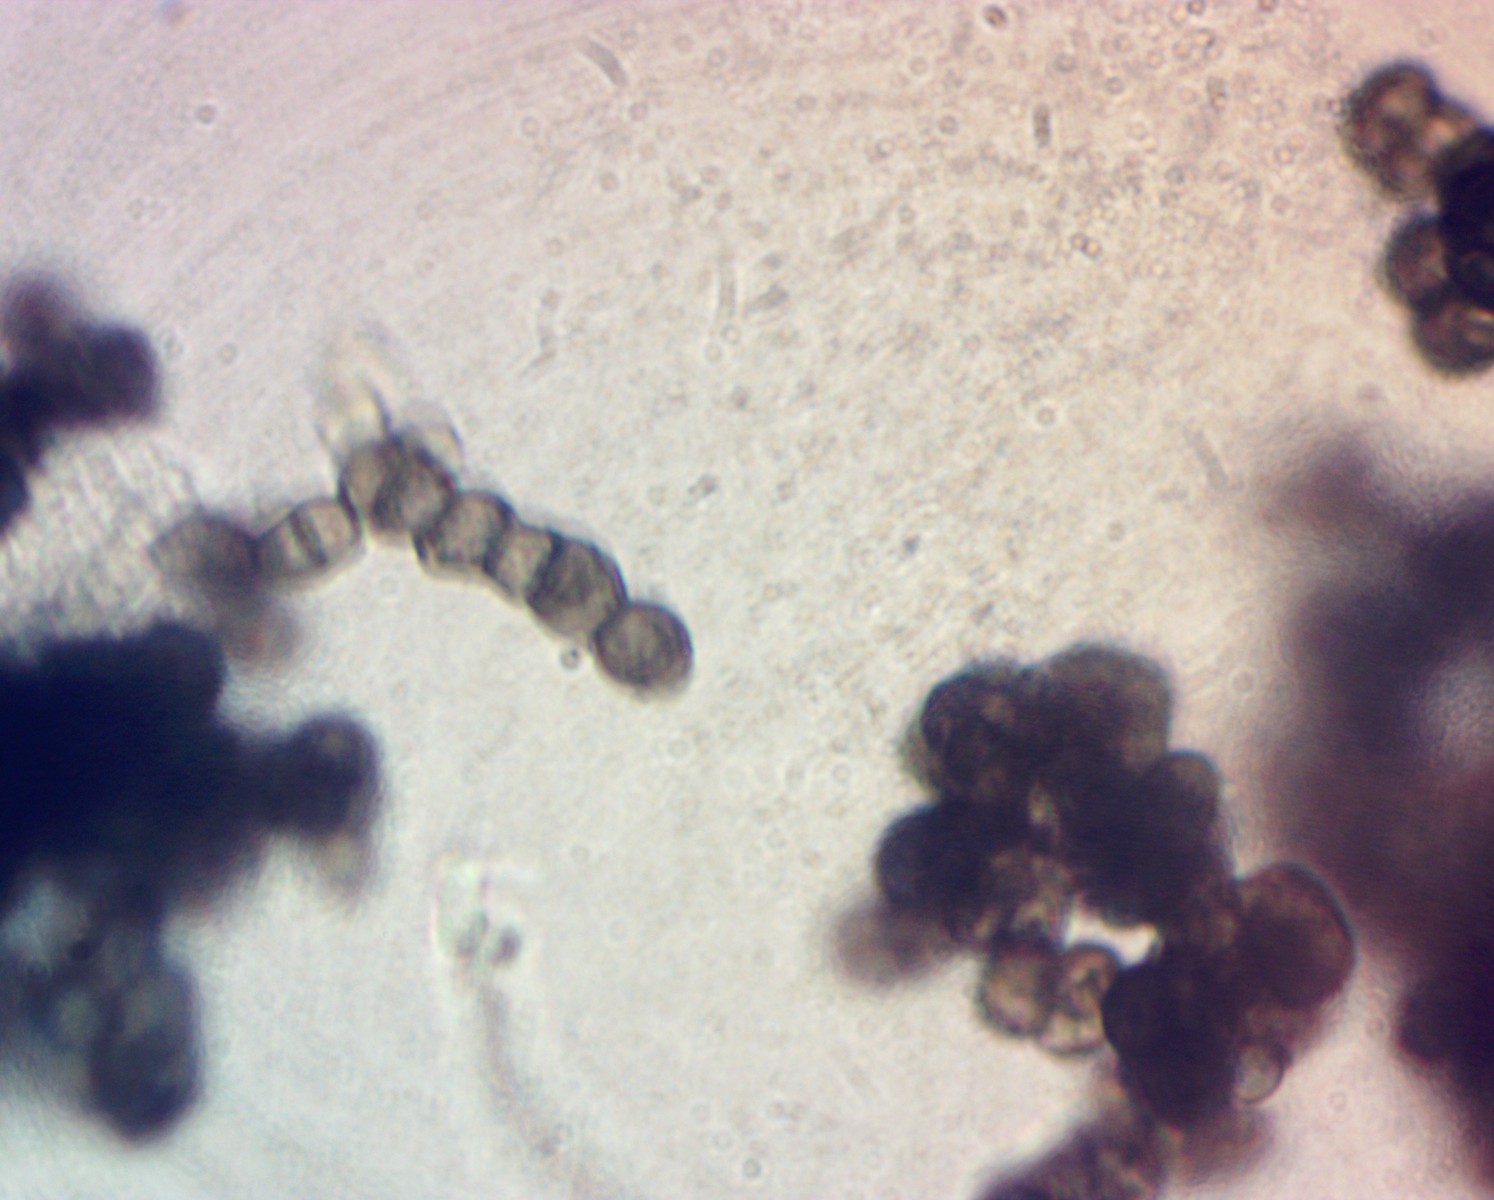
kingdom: Fungi
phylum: Ascomycota
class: Leotiomycetes
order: Helotiales
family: Mollisiaceae
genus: Trimmatostroma
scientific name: Trimmatostroma betulinum
